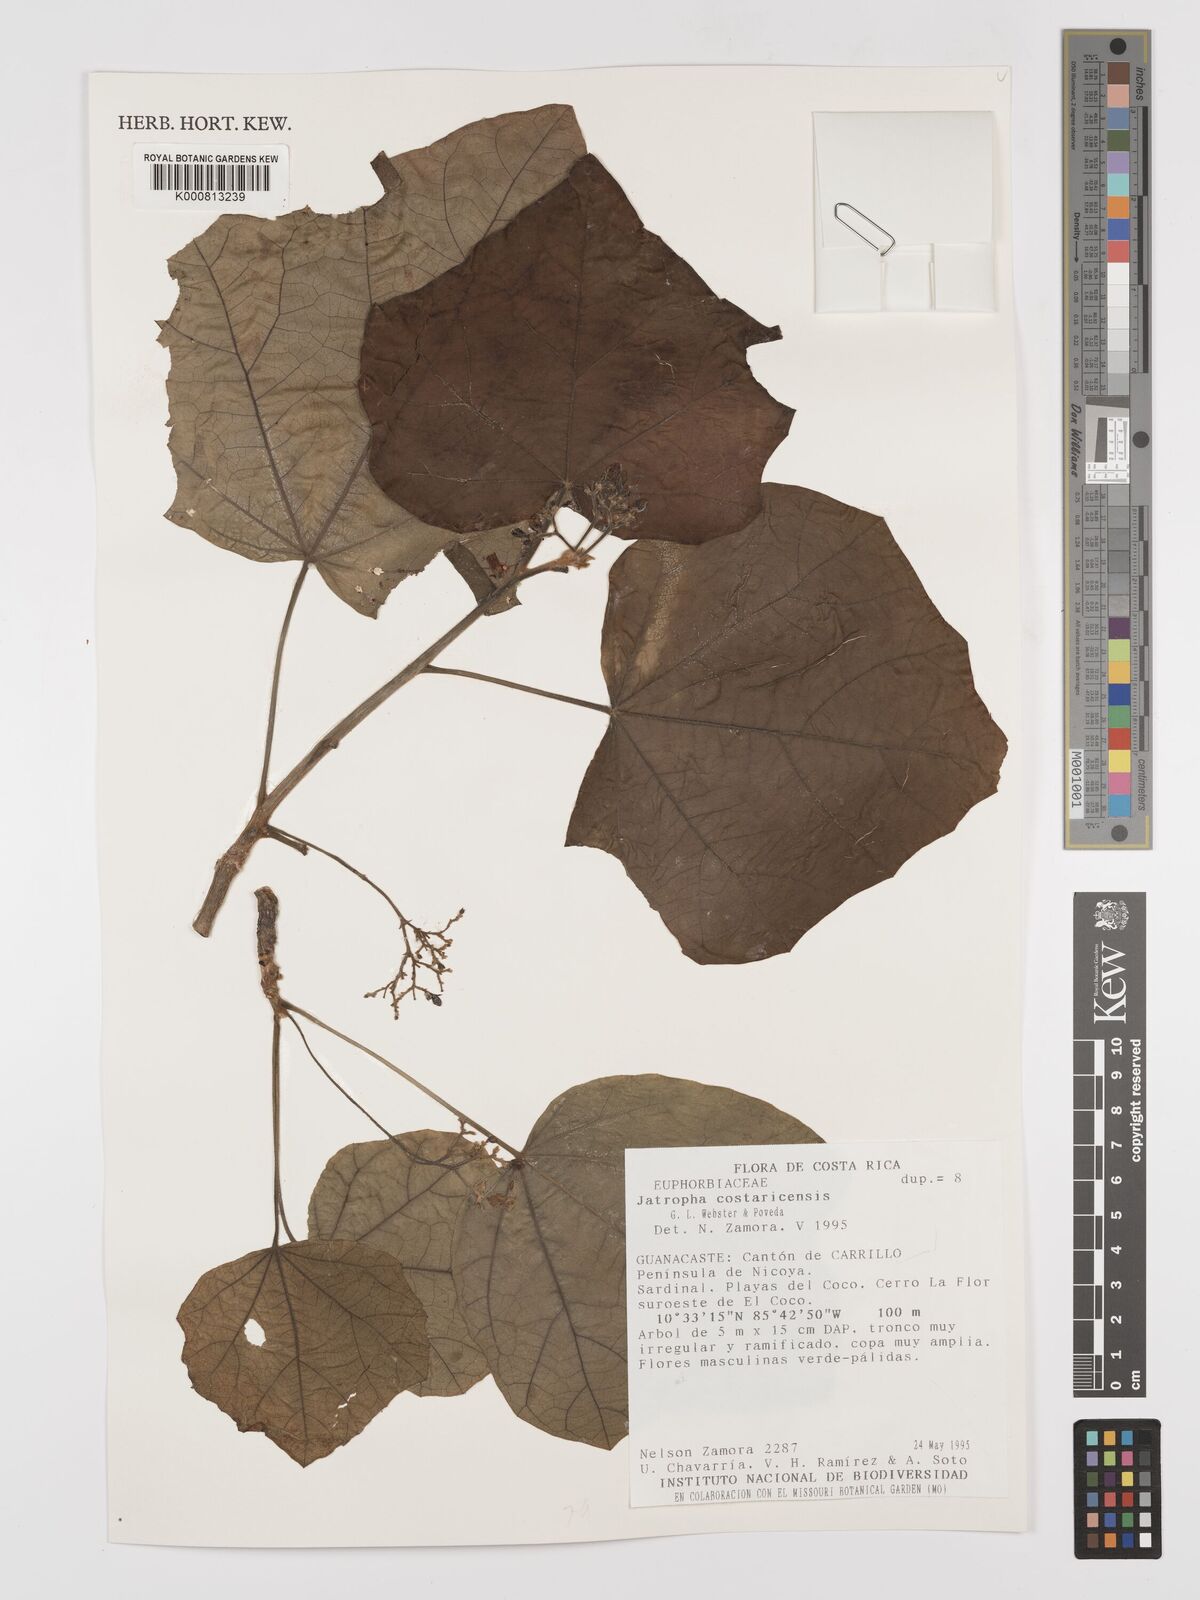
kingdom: Plantae
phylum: Tracheophyta
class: Magnoliopsida
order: Malpighiales
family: Euphorbiaceae
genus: Jatropha
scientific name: Jatropha costaricensis
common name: Costa rican jatropha
